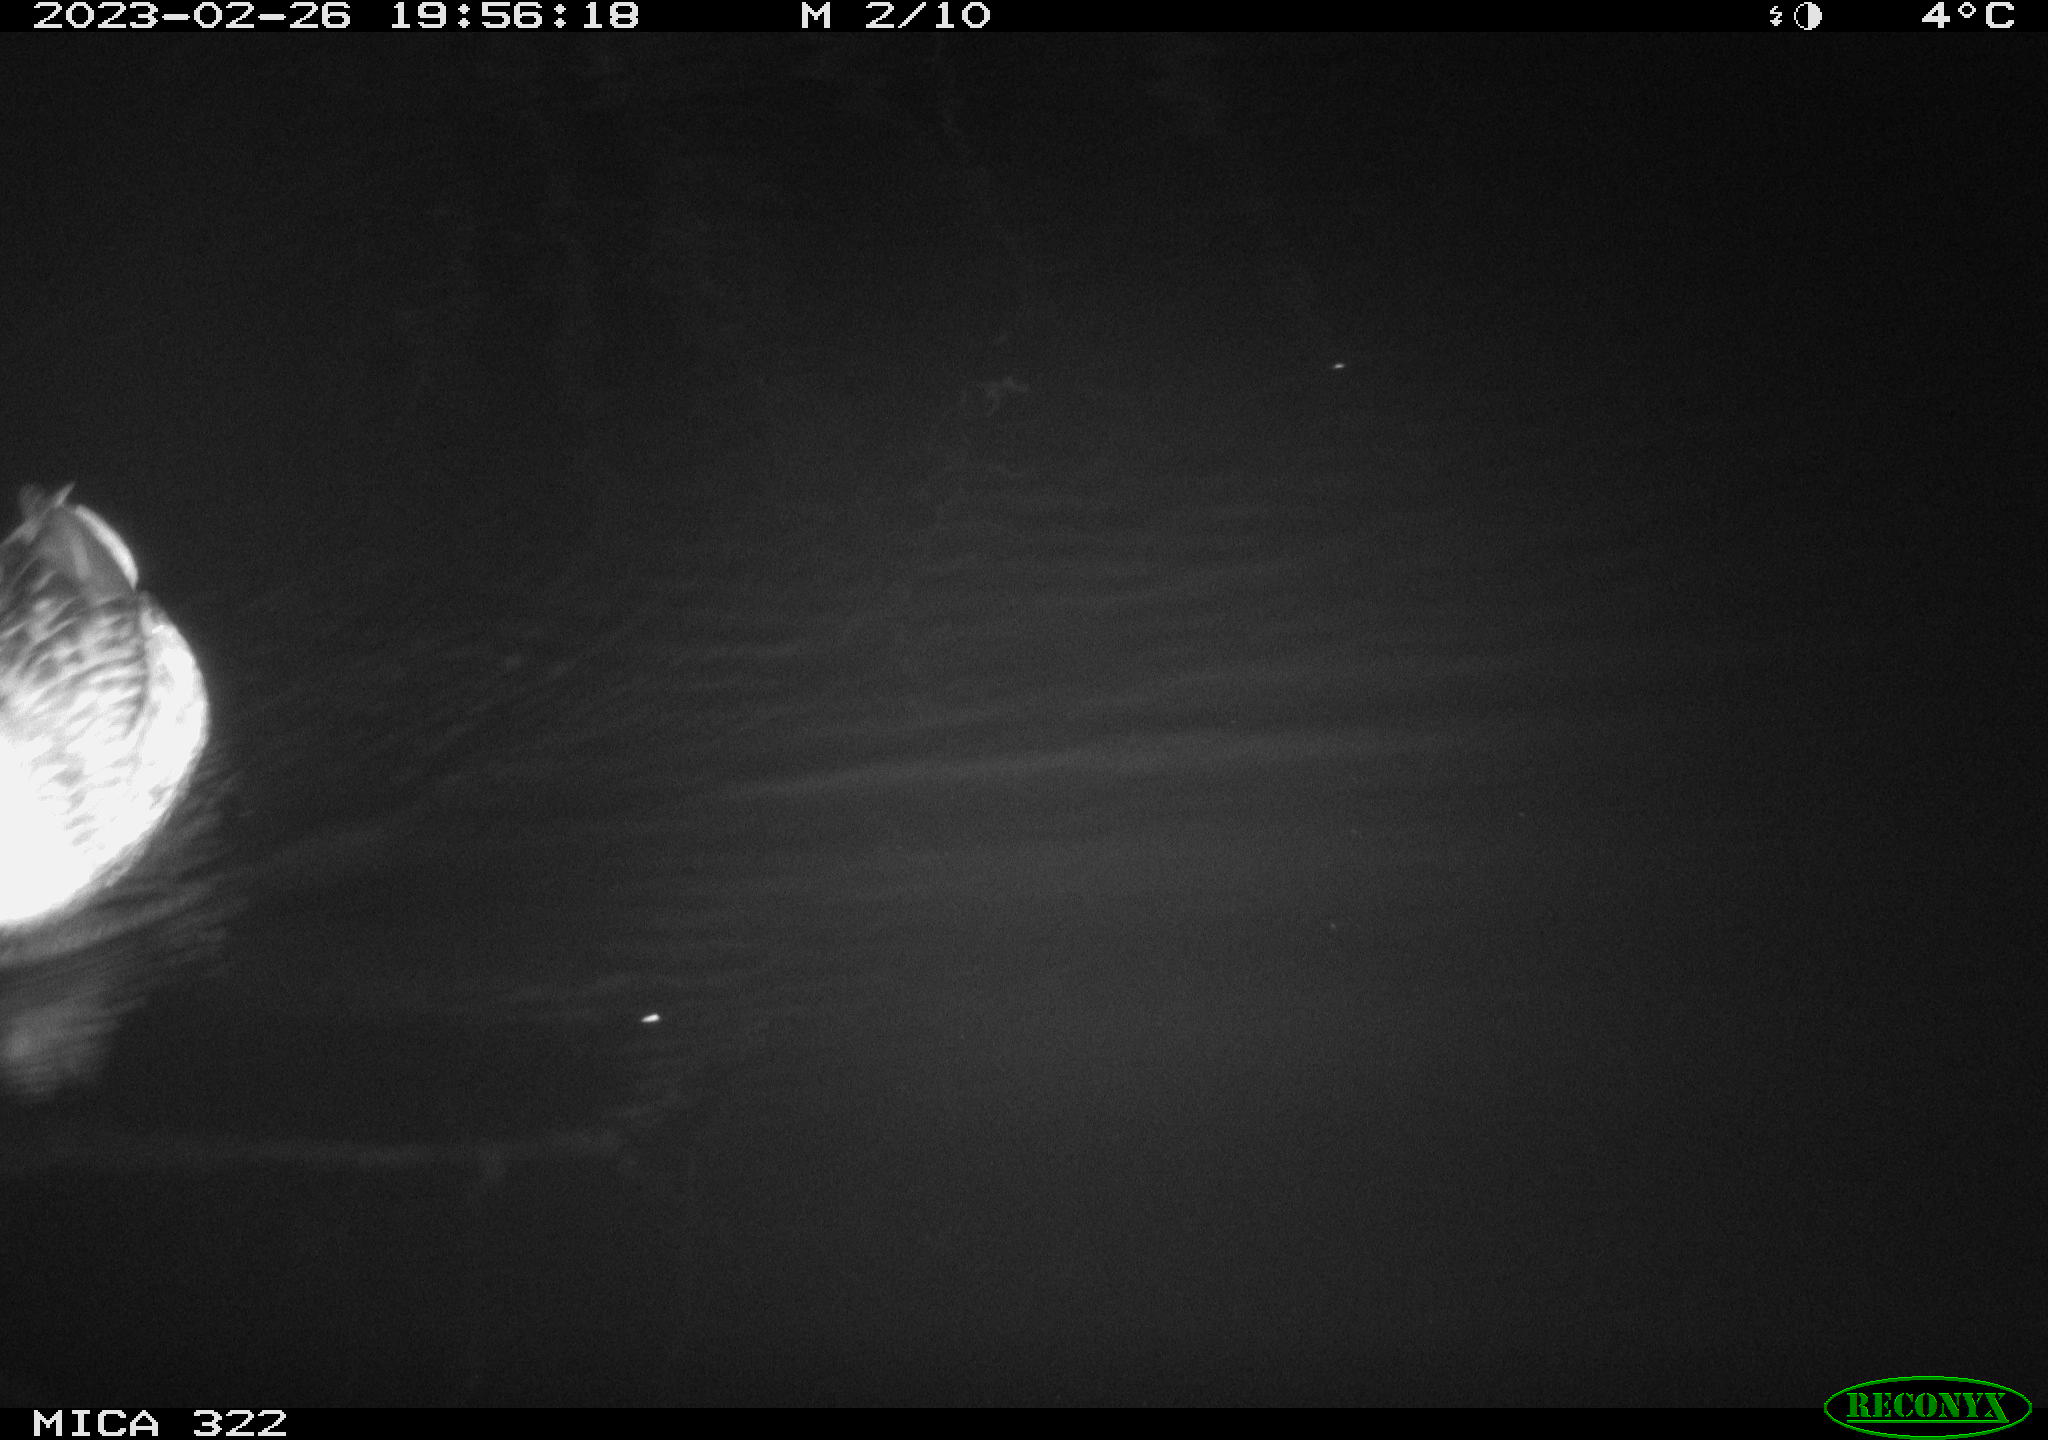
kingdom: Animalia
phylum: Chordata
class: Aves
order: Anseriformes
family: Anatidae
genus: Anas
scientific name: Anas
